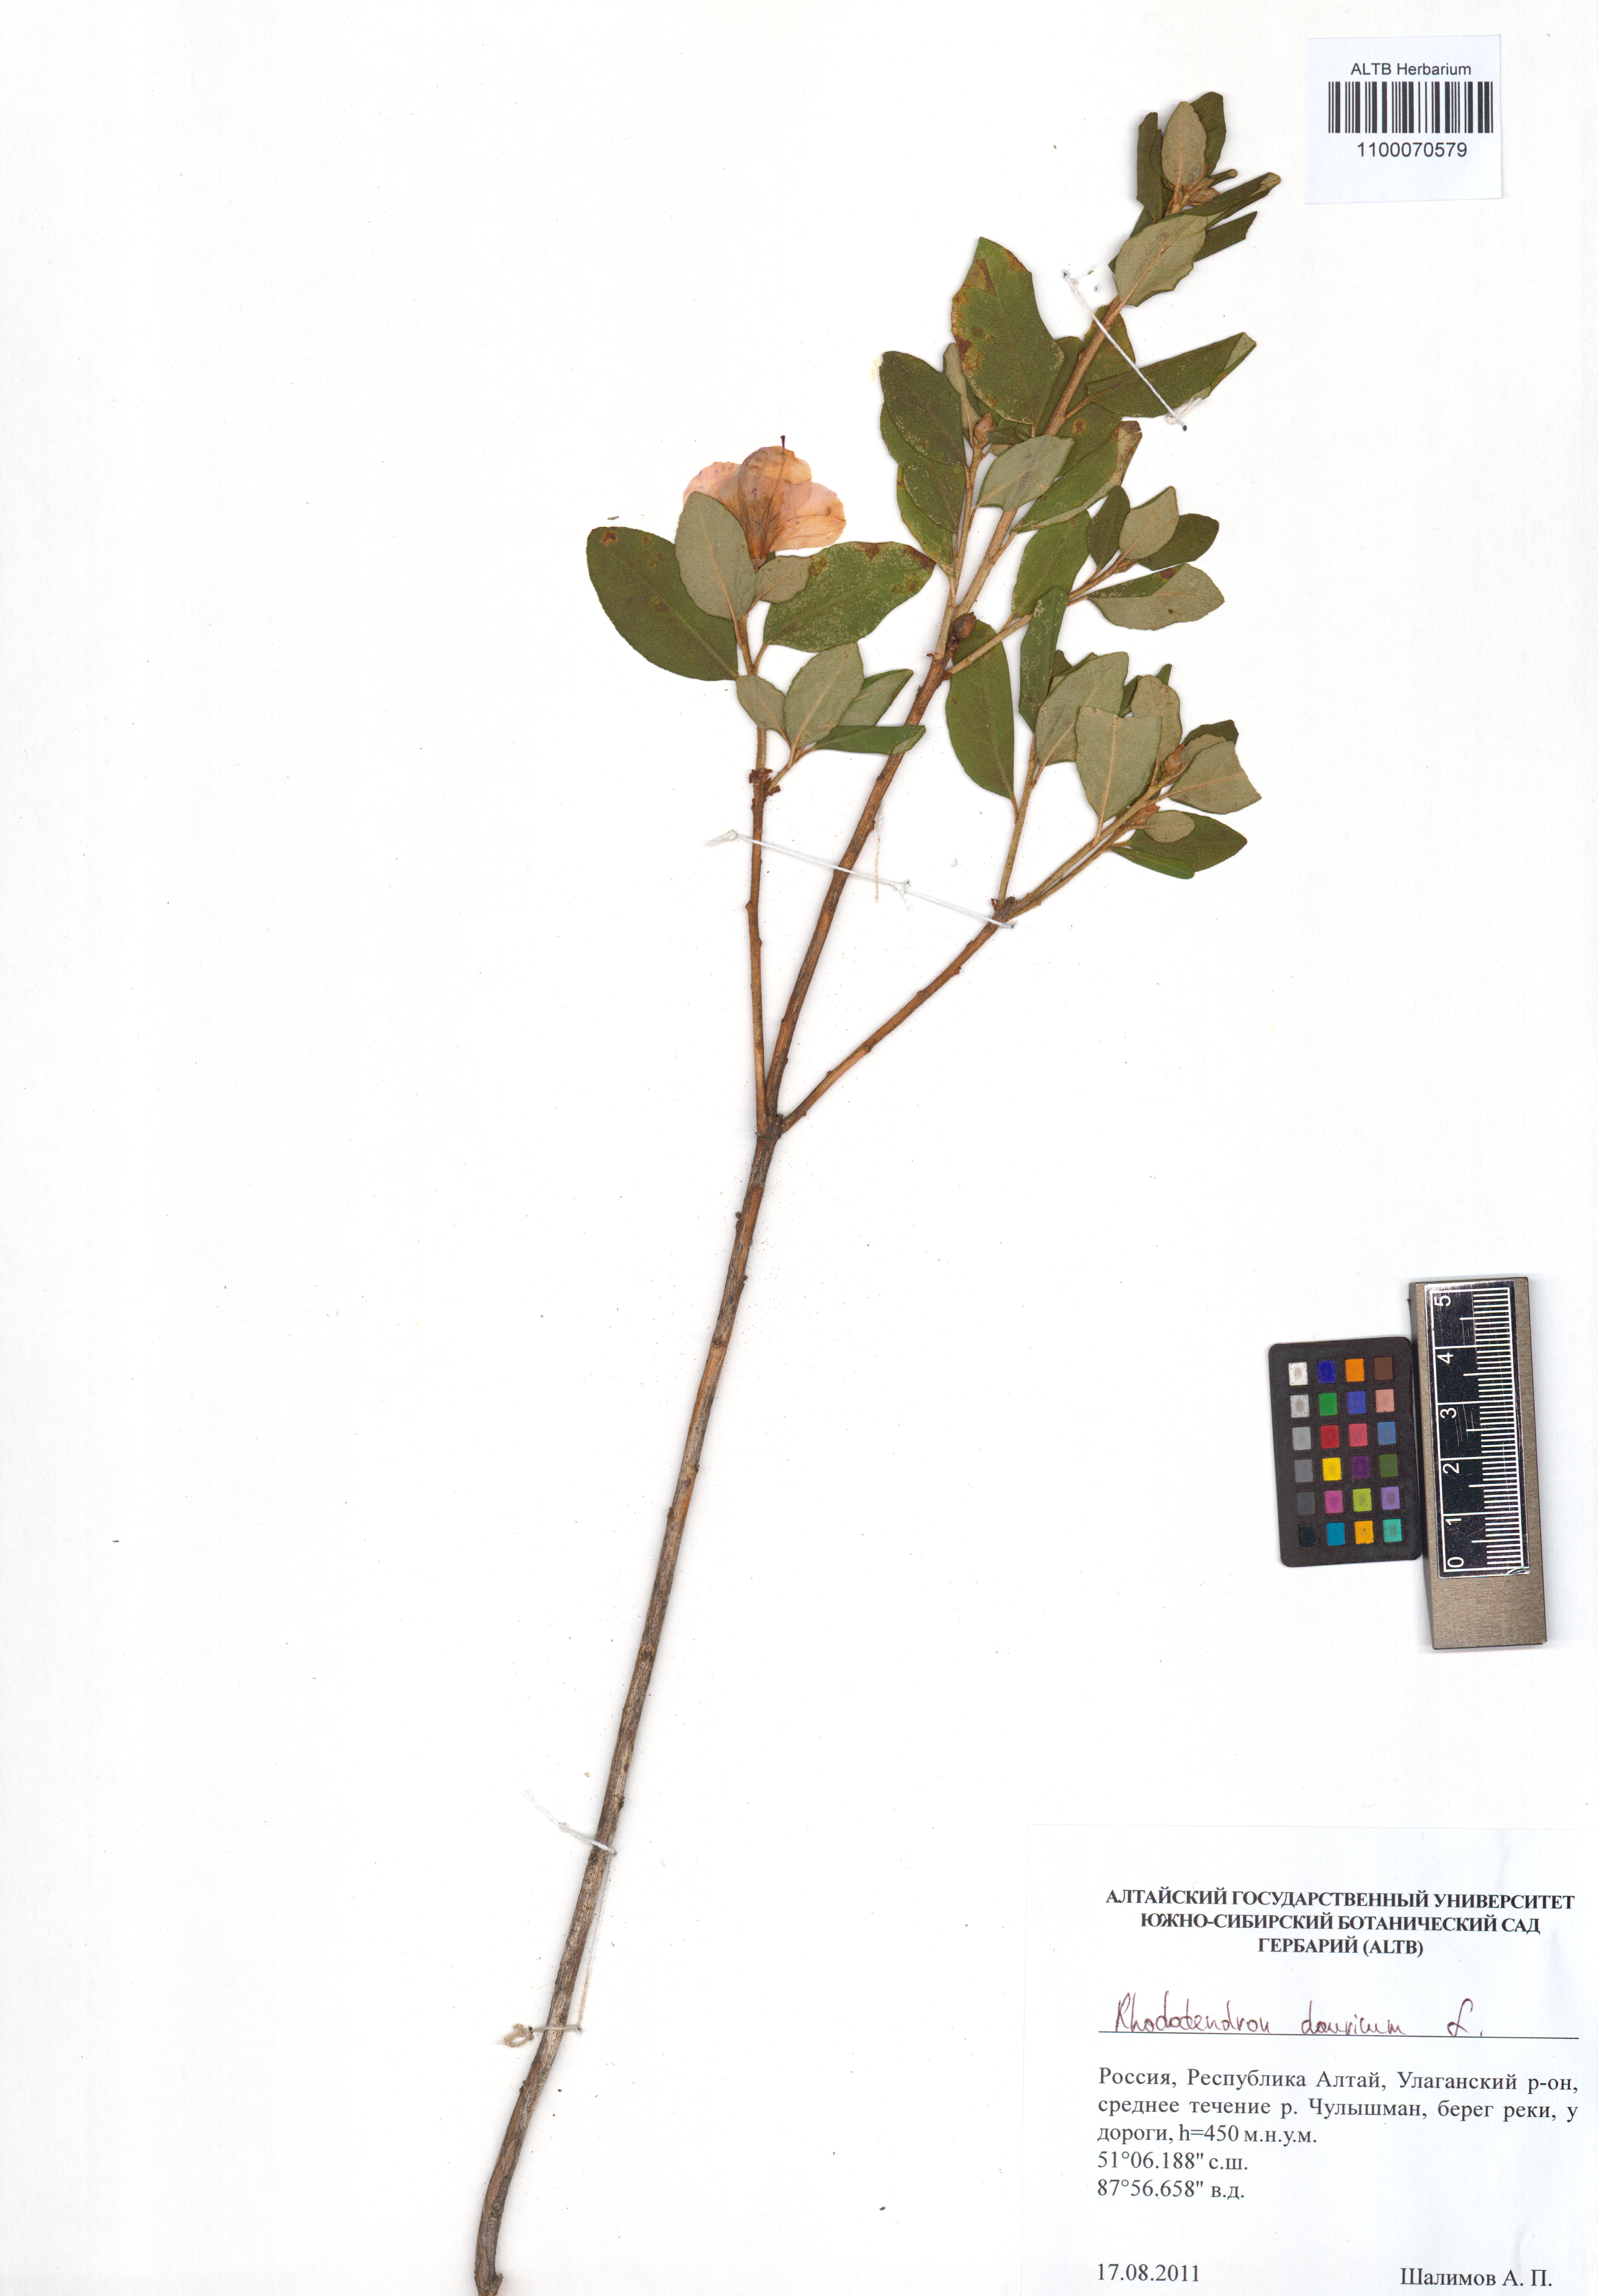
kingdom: Plantae
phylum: Tracheophyta
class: Magnoliopsida
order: Ericales
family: Ericaceae
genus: Rhododendron
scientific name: Rhododendron dauricum
